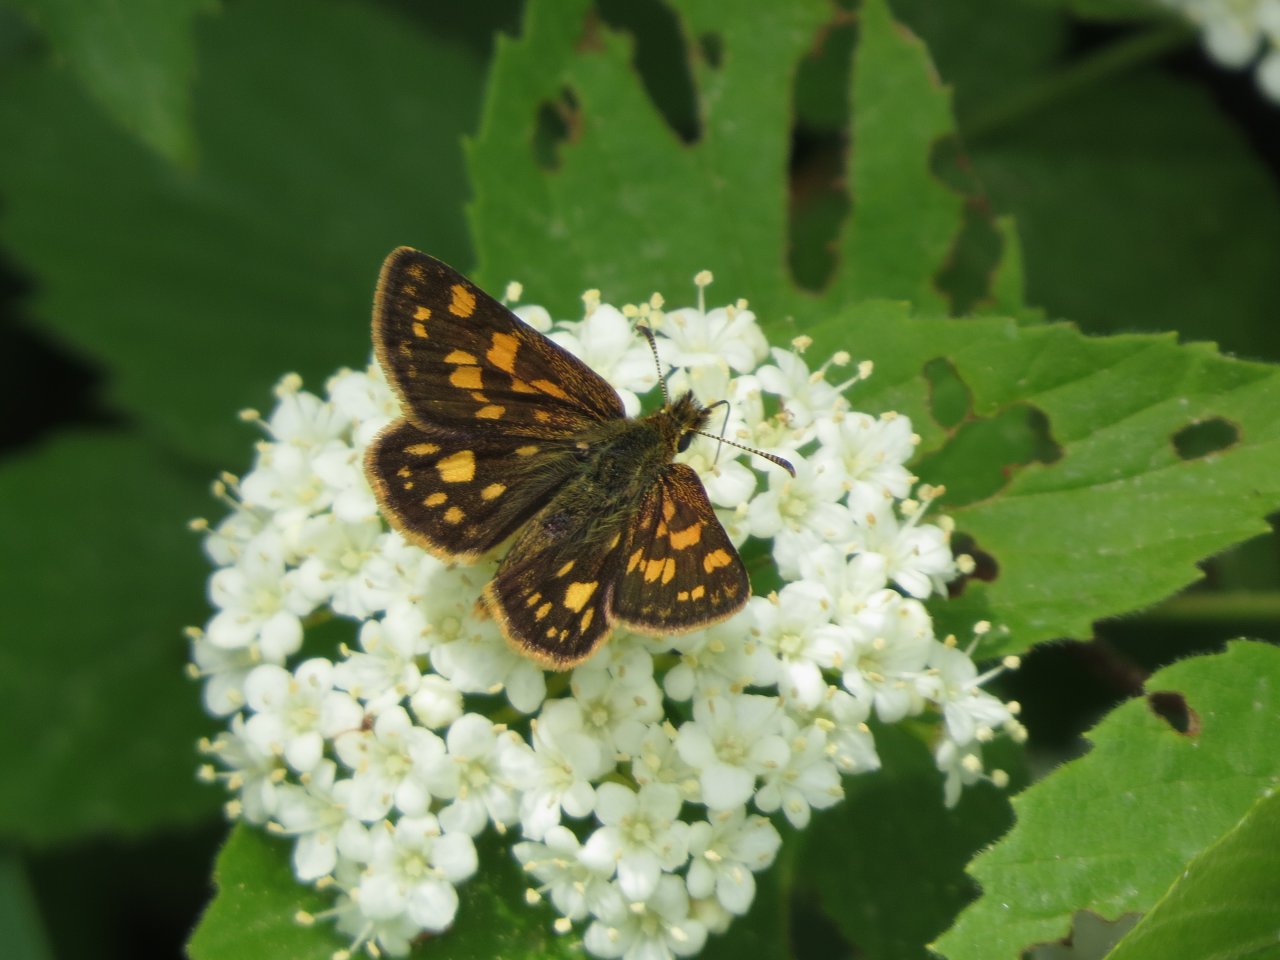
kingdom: Animalia
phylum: Arthropoda
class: Insecta
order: Lepidoptera
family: Hesperiidae
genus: Carterocephalus
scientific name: Carterocephalus palaemon
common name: Chequered Skipper
